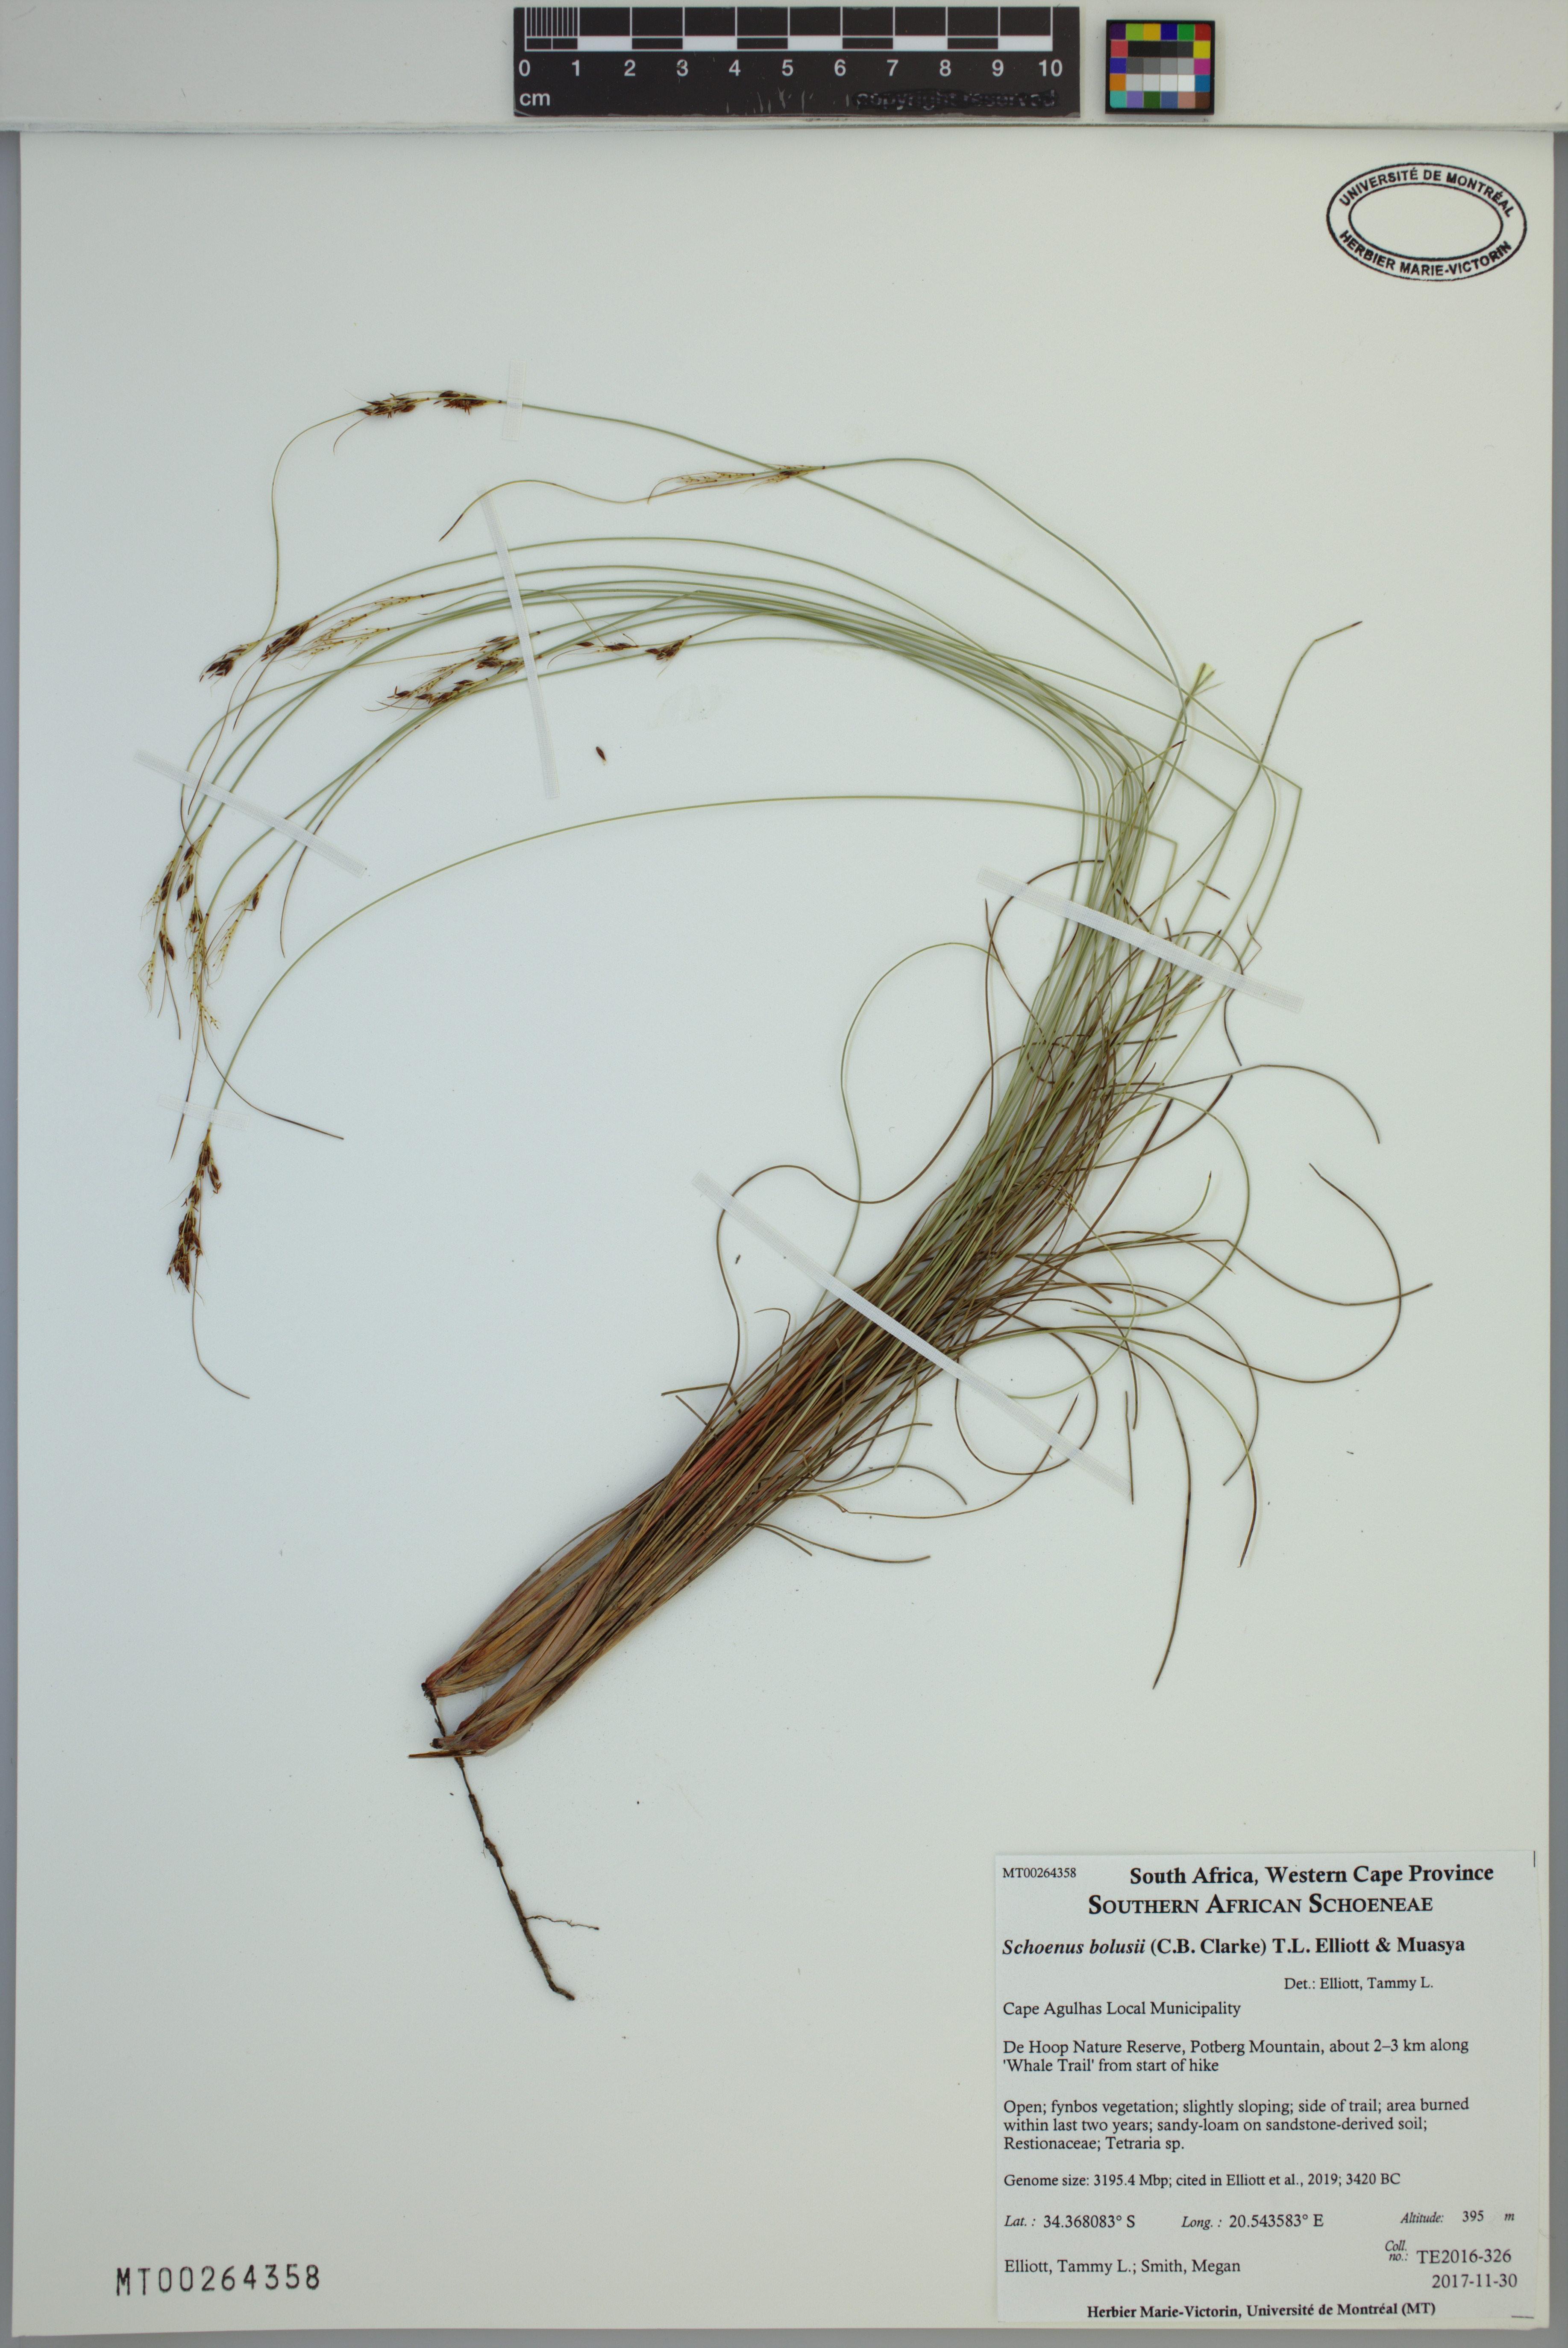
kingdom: Plantae
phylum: Tracheophyta
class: Liliopsida
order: Poales
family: Cyperaceae
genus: Schoenus
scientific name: Schoenus bolusii
